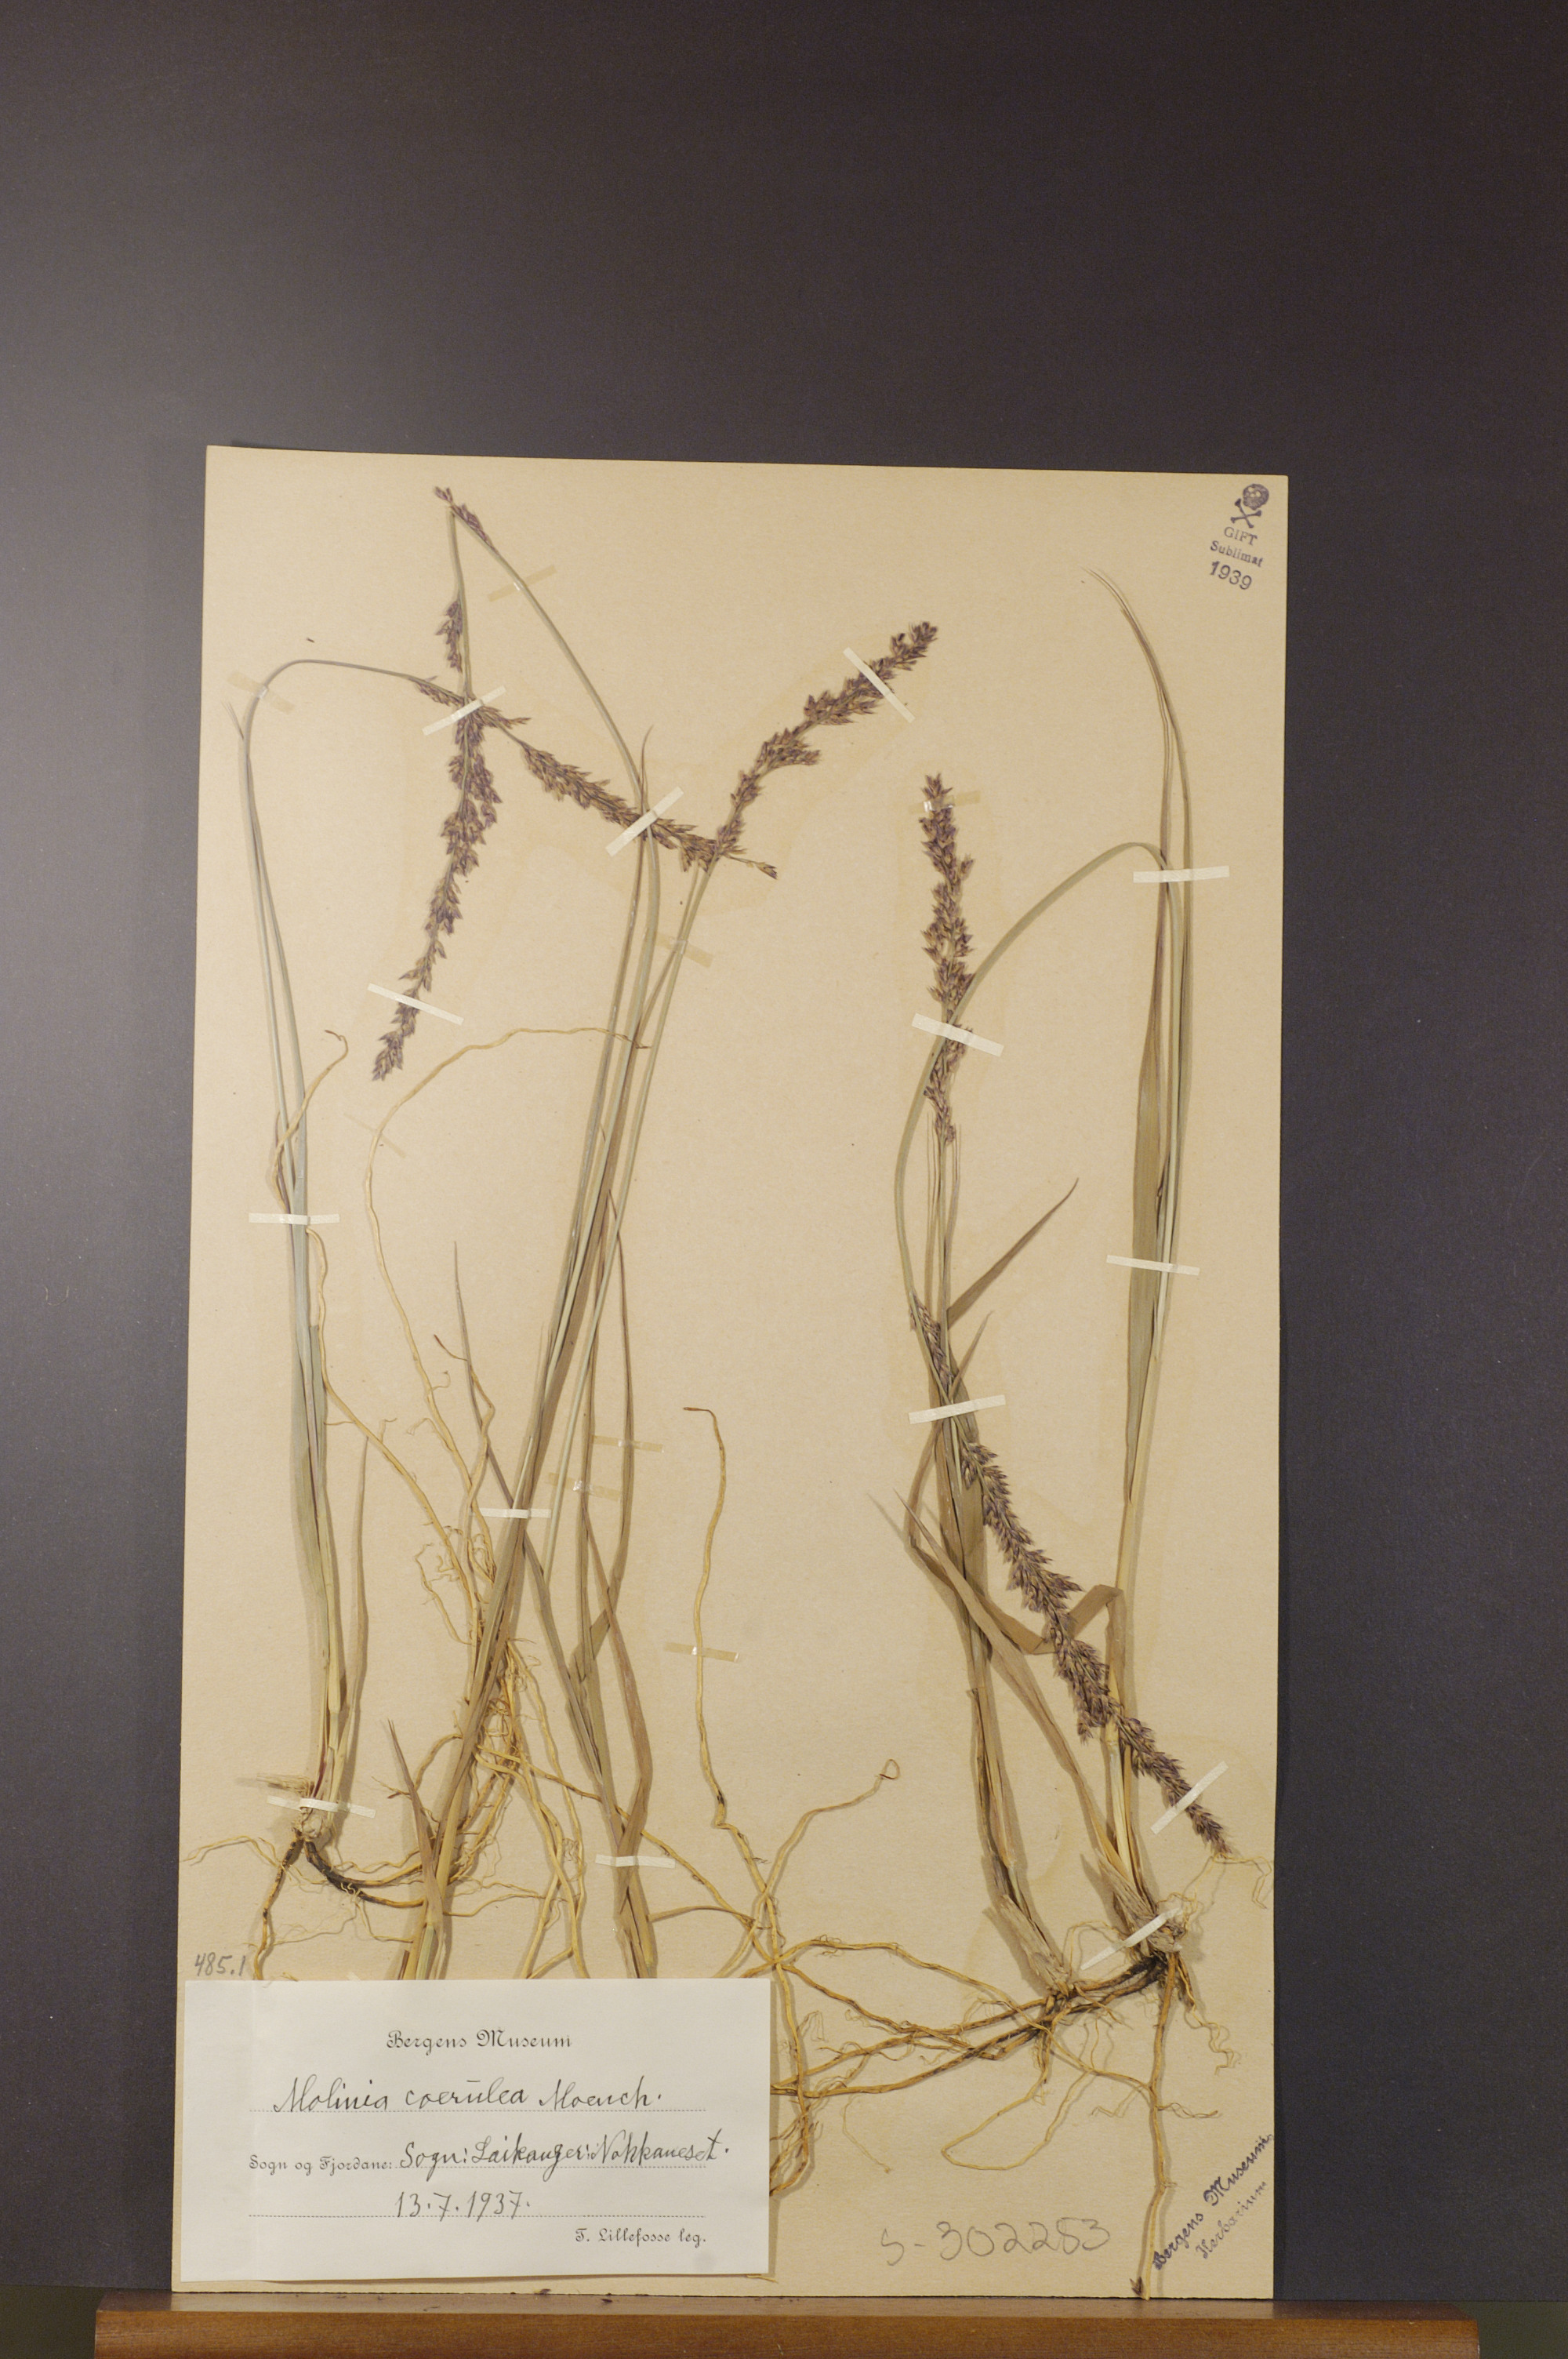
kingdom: Plantae
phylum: Tracheophyta
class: Liliopsida
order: Poales
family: Poaceae
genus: Molinia
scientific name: Molinia caerulea
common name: Purple moor-grass
